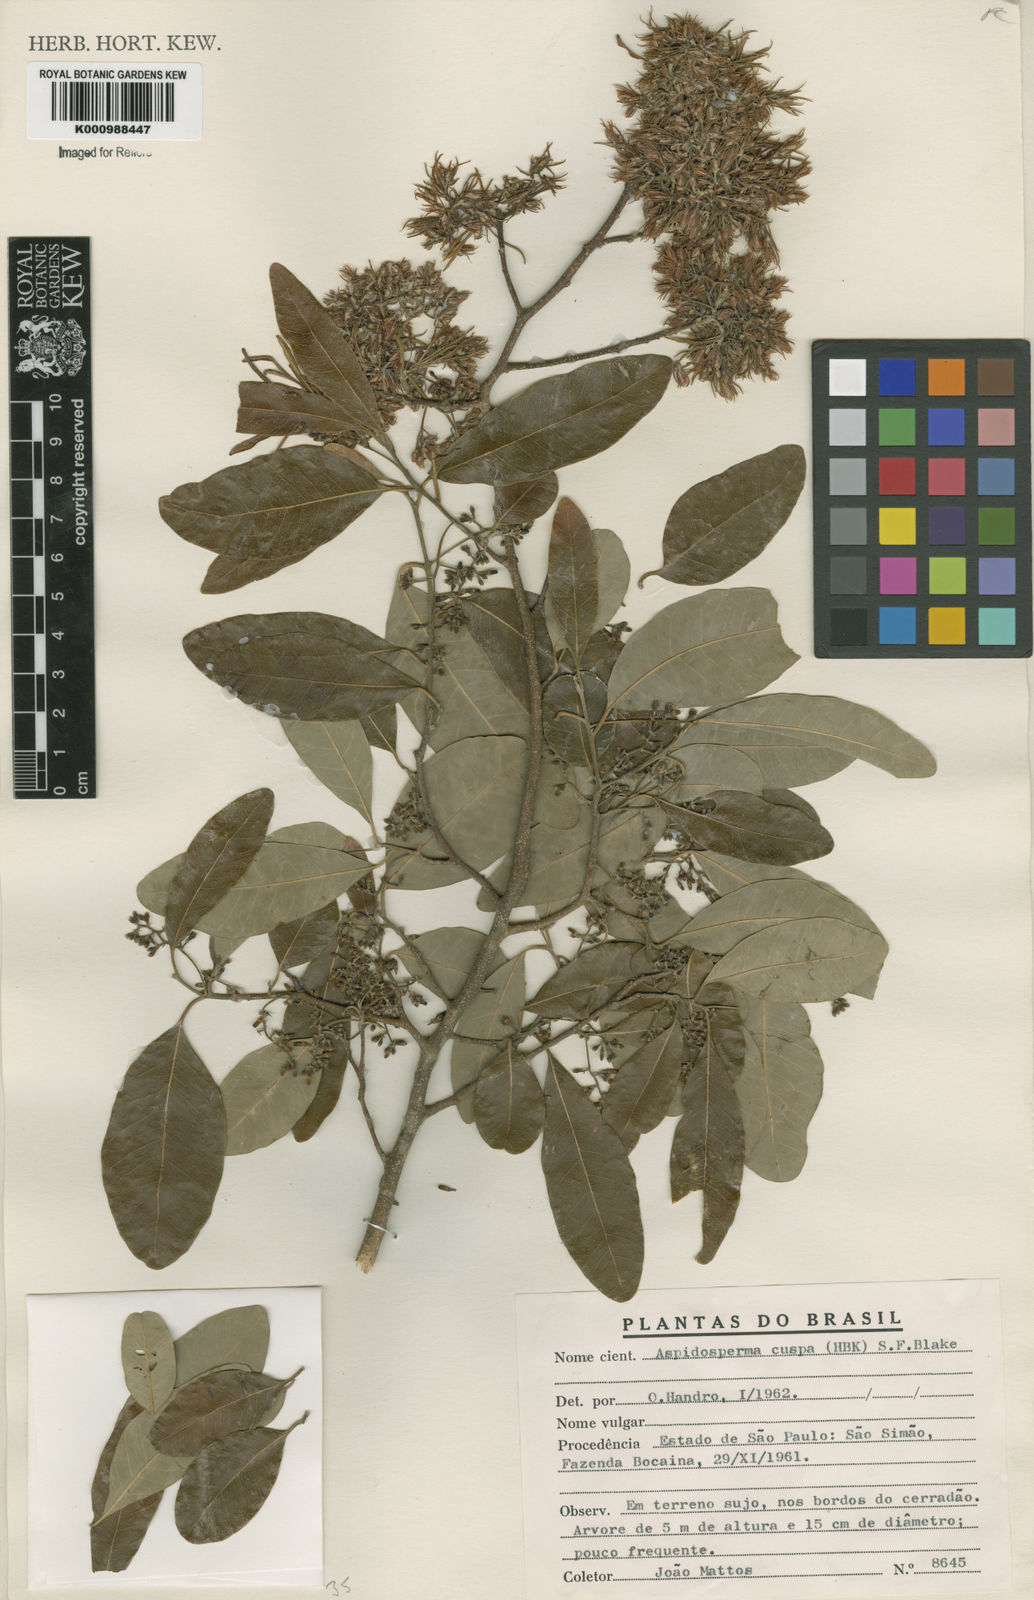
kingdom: Plantae
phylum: Tracheophyta
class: Magnoliopsida
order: Gentianales
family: Apocynaceae
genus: Aspidosperma
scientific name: Aspidosperma cuspa
